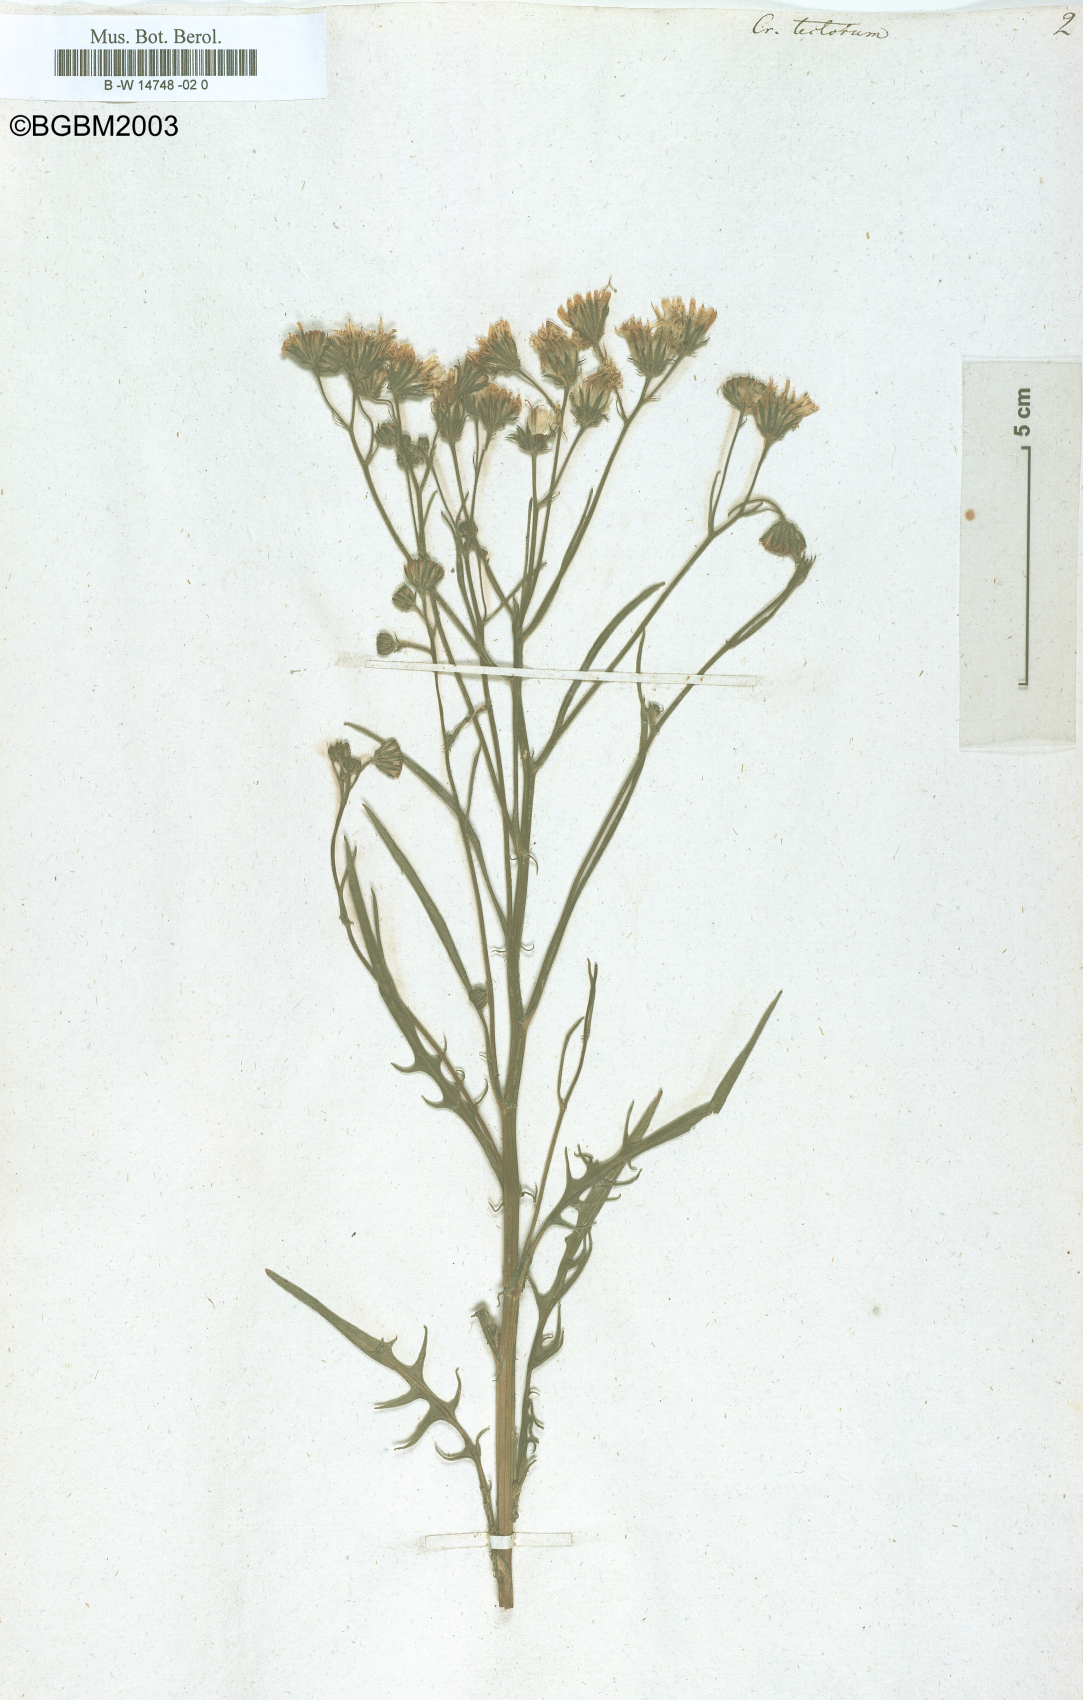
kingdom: Plantae
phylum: Tracheophyta
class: Magnoliopsida
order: Asterales
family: Asteraceae
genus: Crepis
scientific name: Crepis tectorum
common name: Narrow-leaved hawk's-beard
